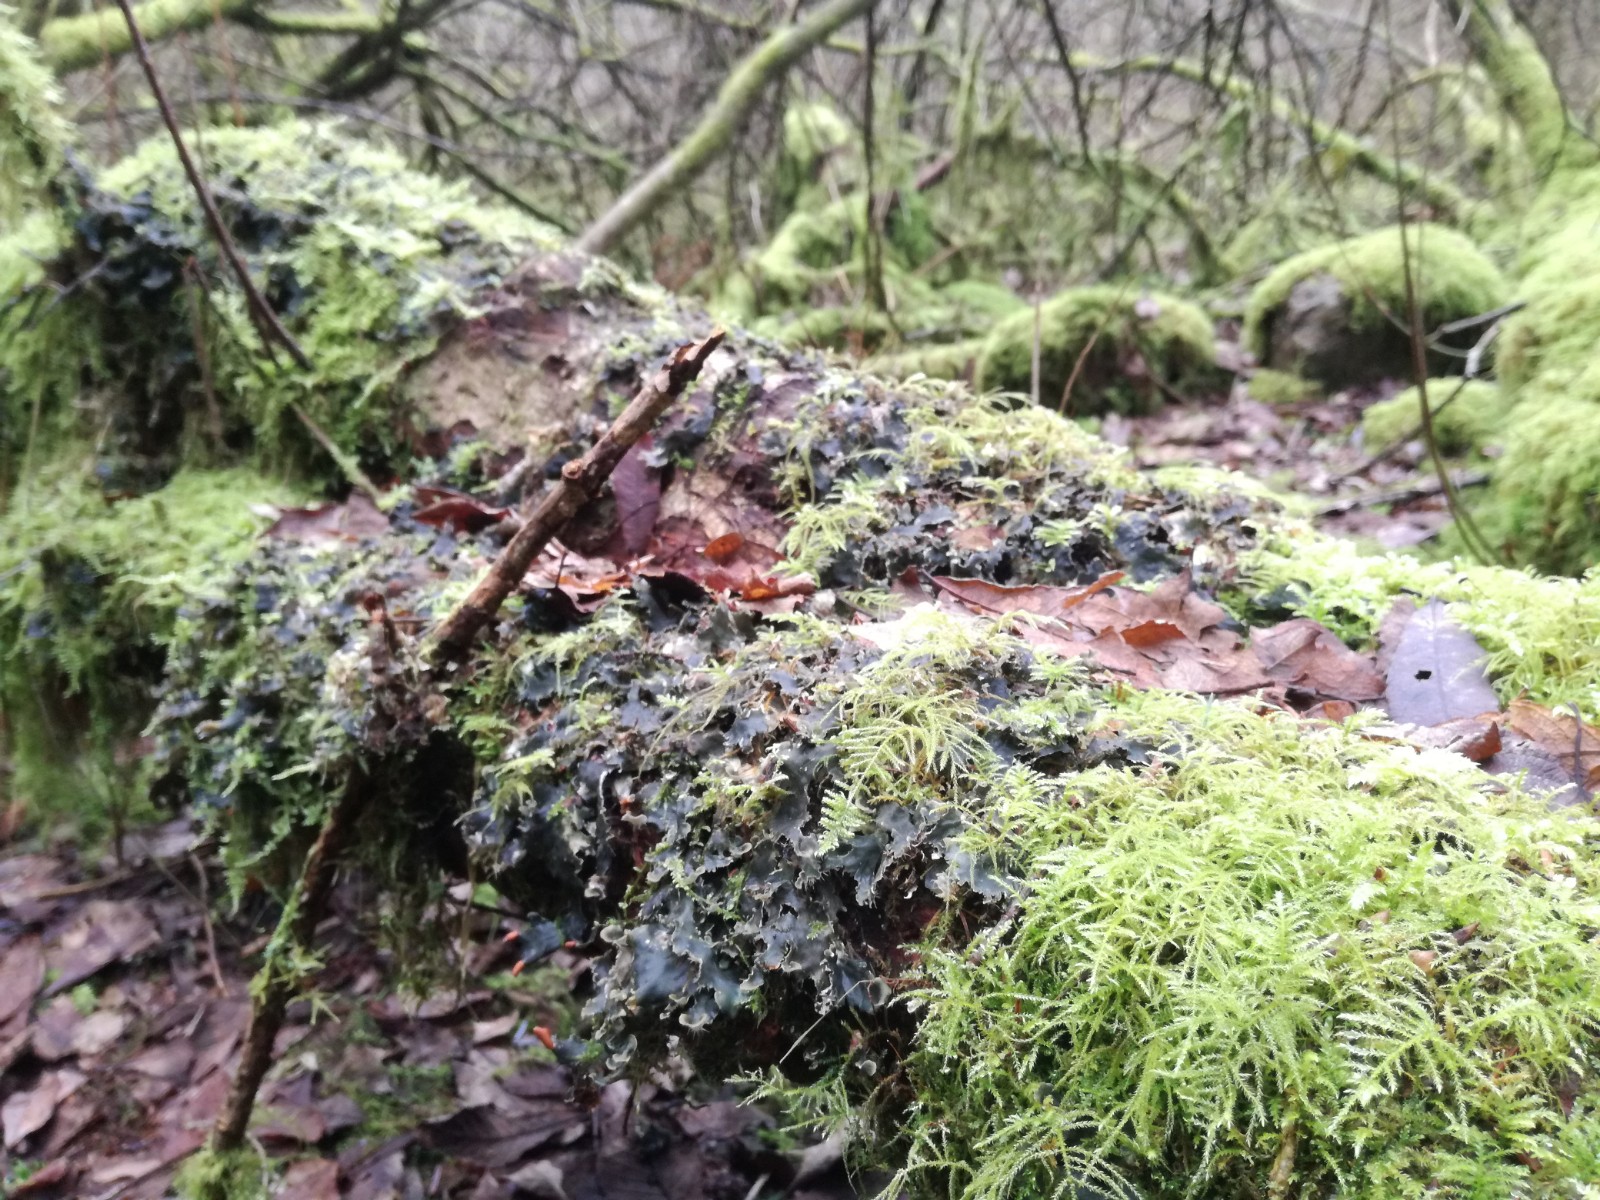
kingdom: Fungi
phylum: Ascomycota
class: Lecanoromycetes
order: Peltigerales
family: Peltigeraceae
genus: Peltigera
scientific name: Peltigera hymenina
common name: hinde-skjoldlav
